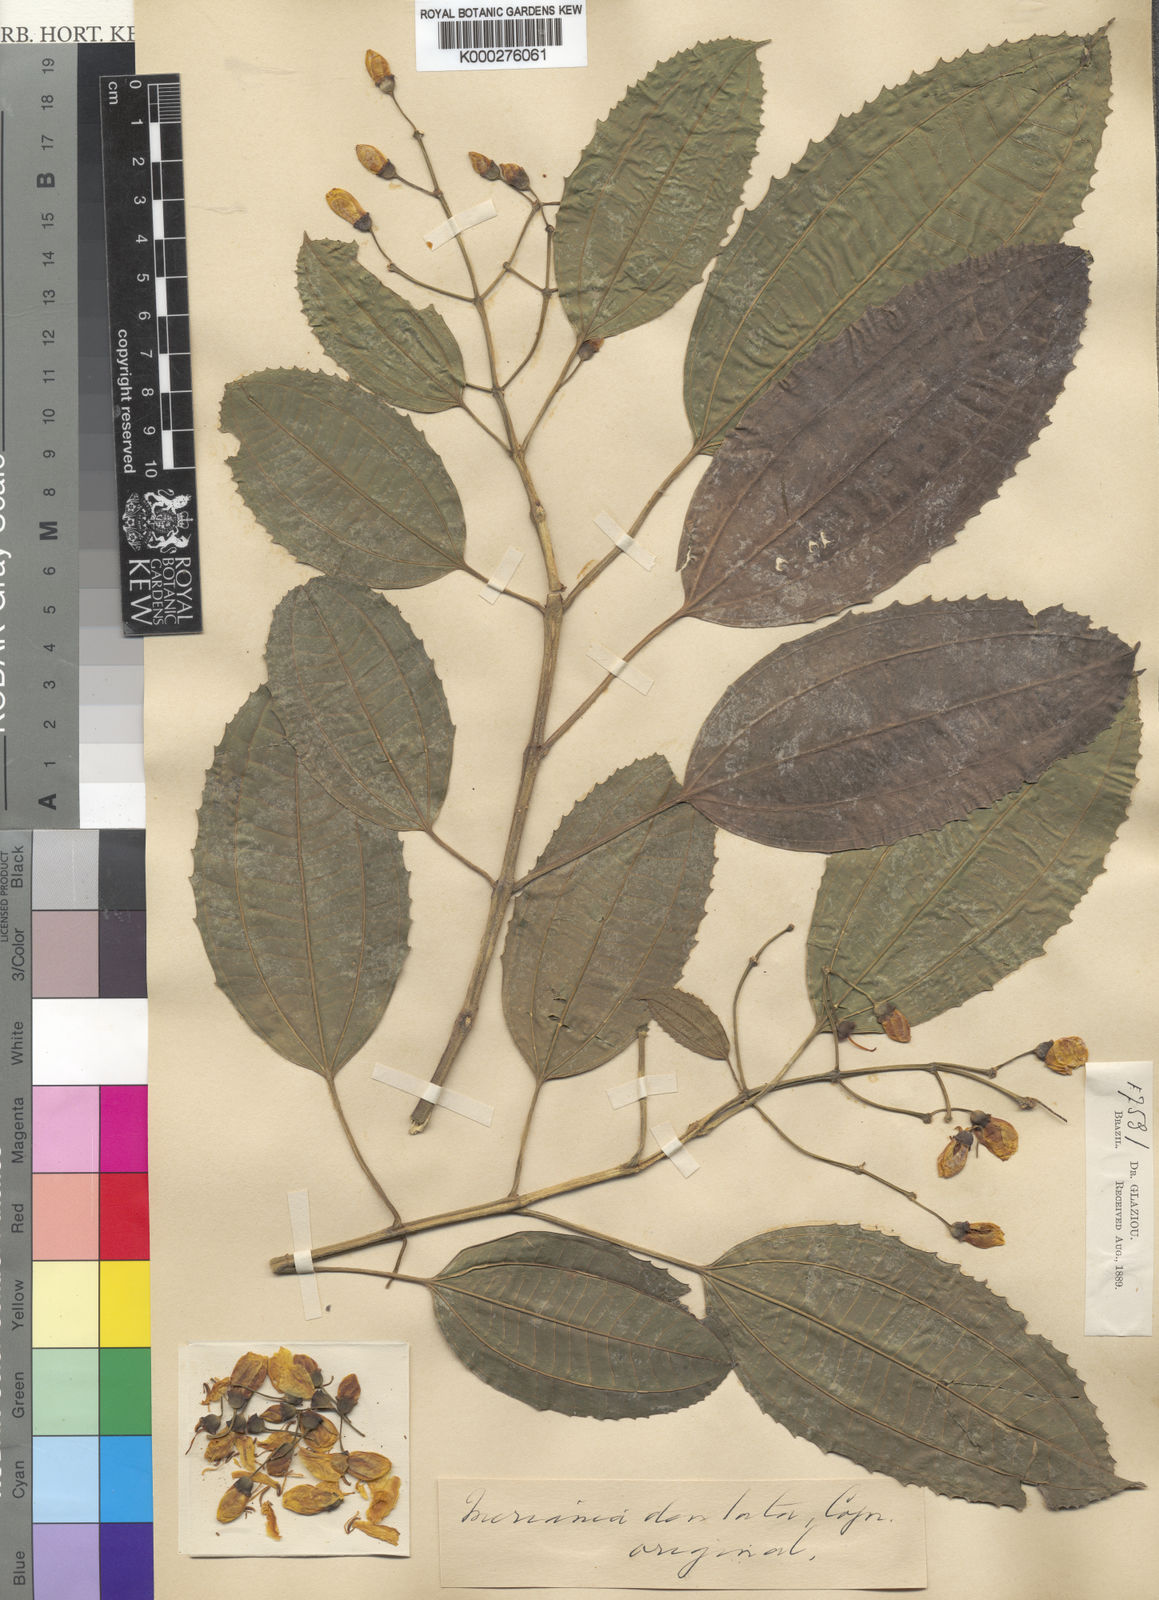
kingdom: Plantae
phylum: Tracheophyta
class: Magnoliopsida
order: Myrtales
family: Melastomataceae
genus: Meriania
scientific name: Meriania claussenii
